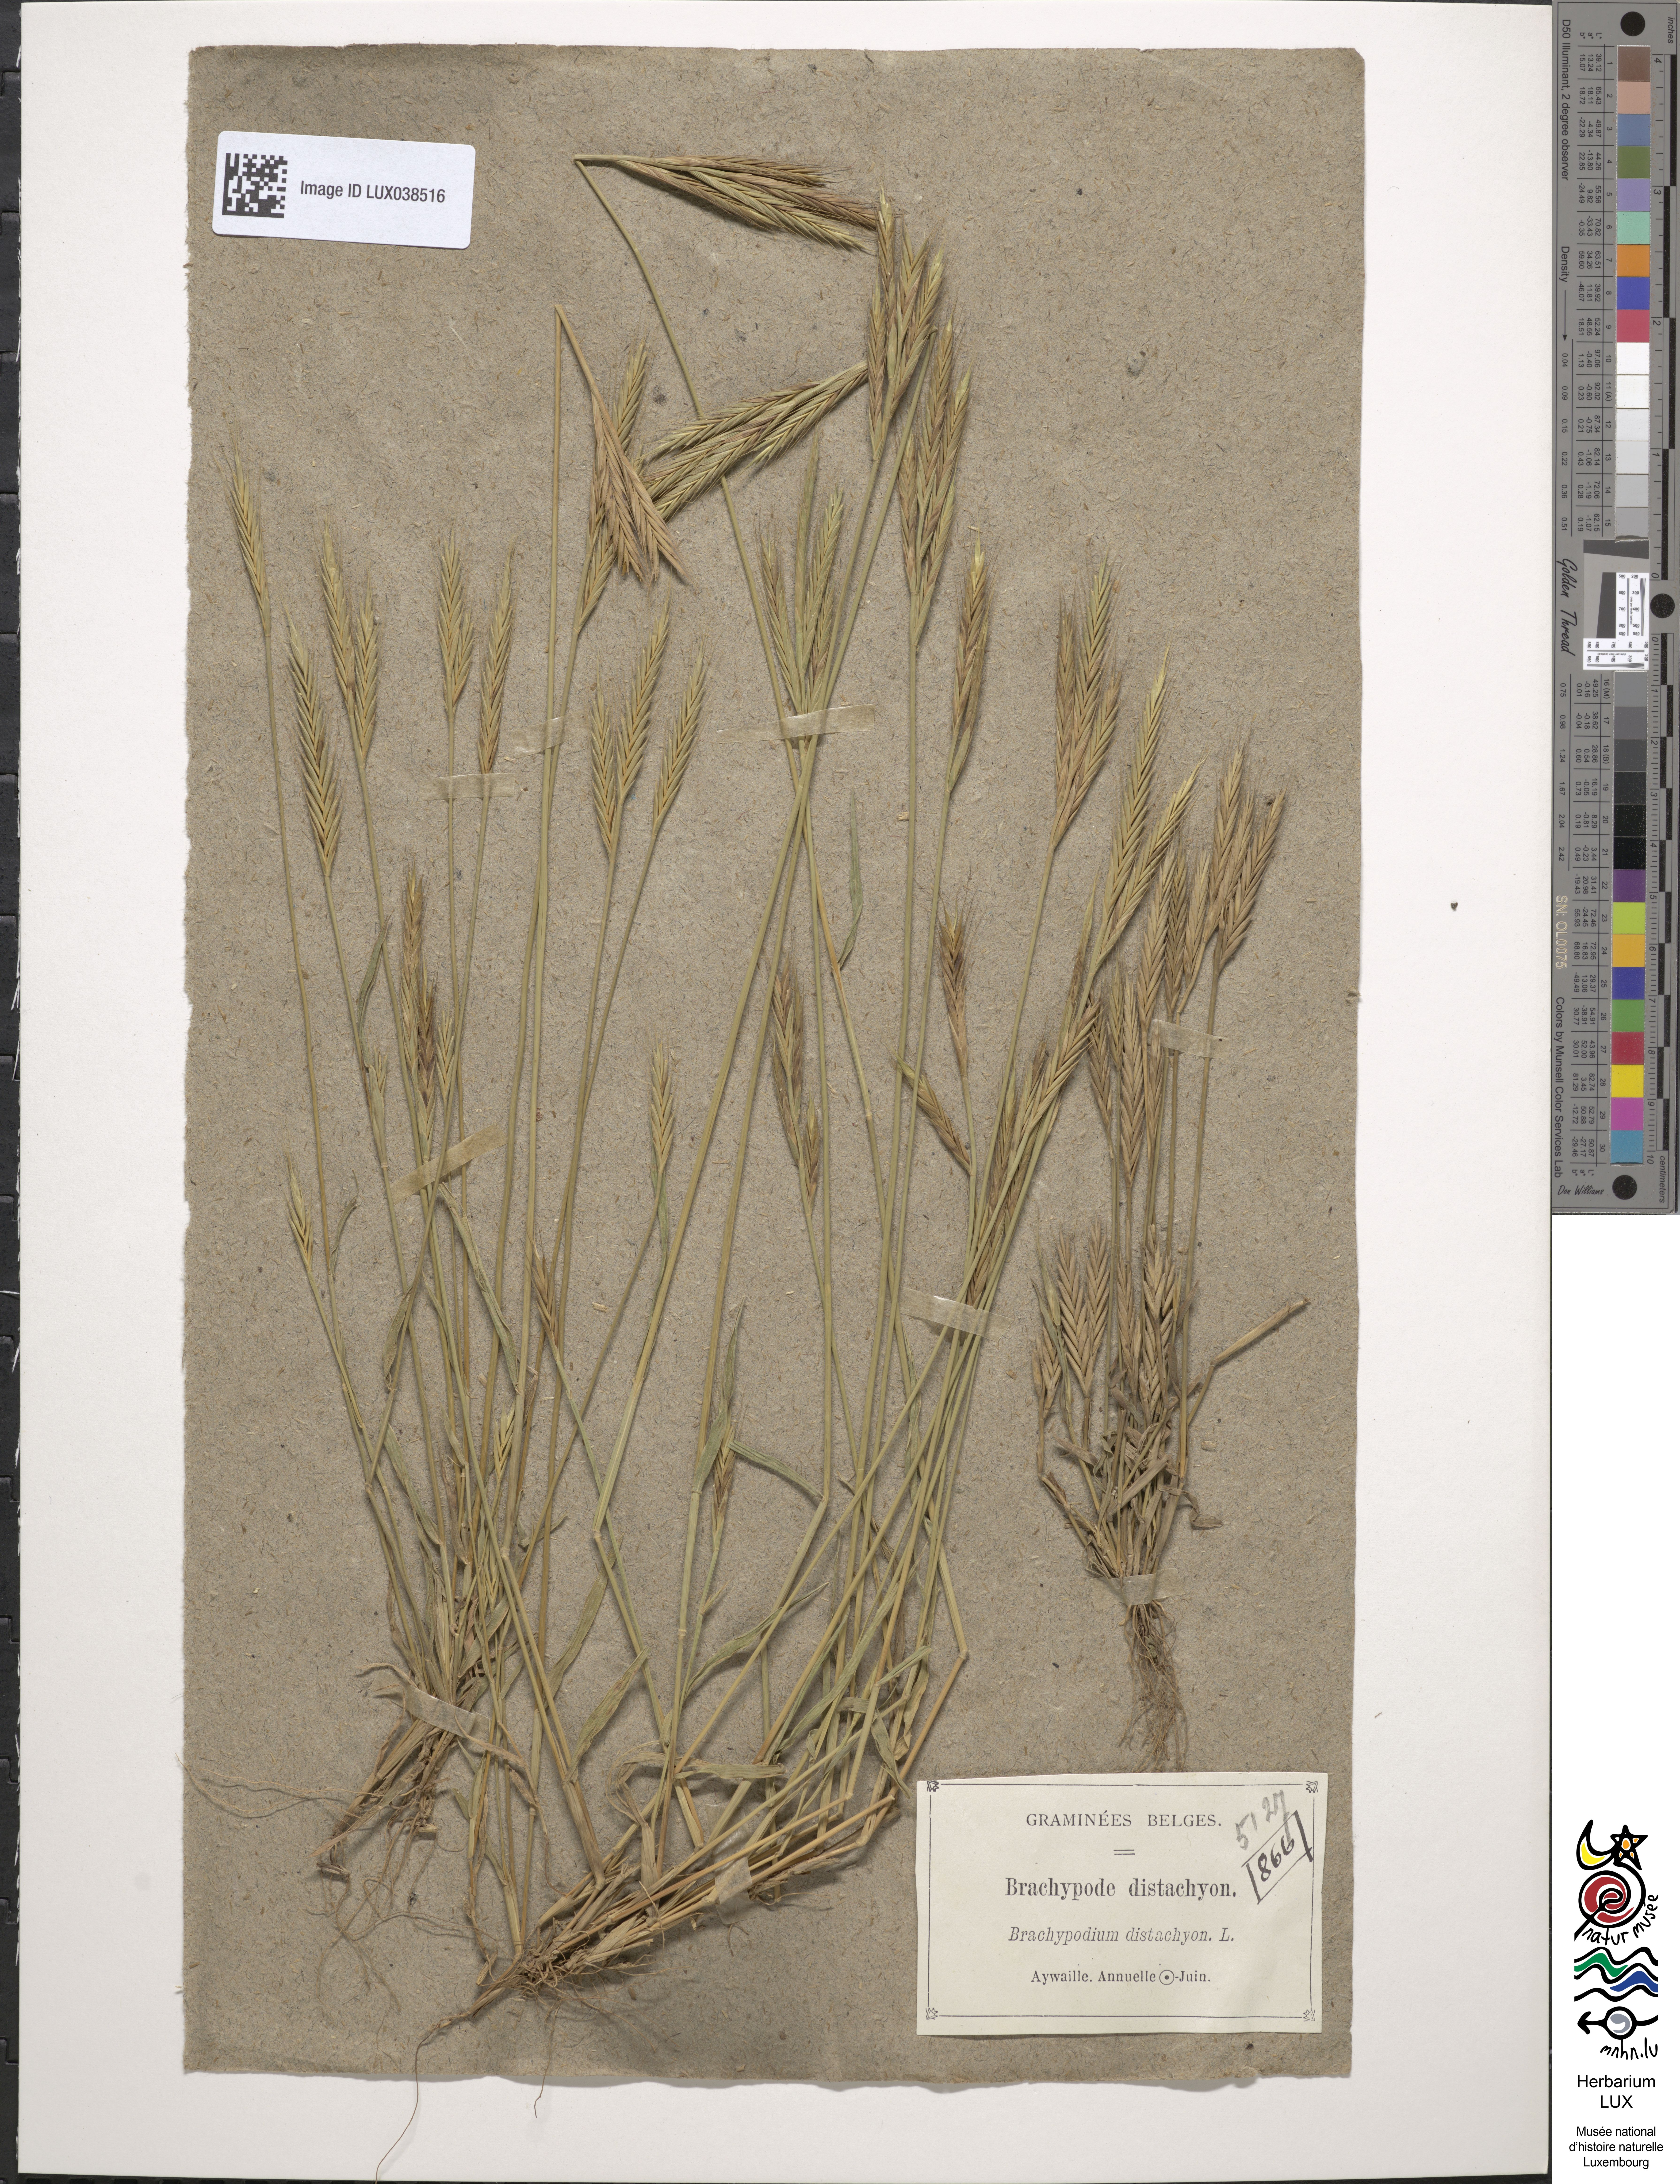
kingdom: Plantae
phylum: Tracheophyta
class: Liliopsida
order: Poales
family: Poaceae
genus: Brachypodium
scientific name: Brachypodium distachyon
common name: Stiff brome
